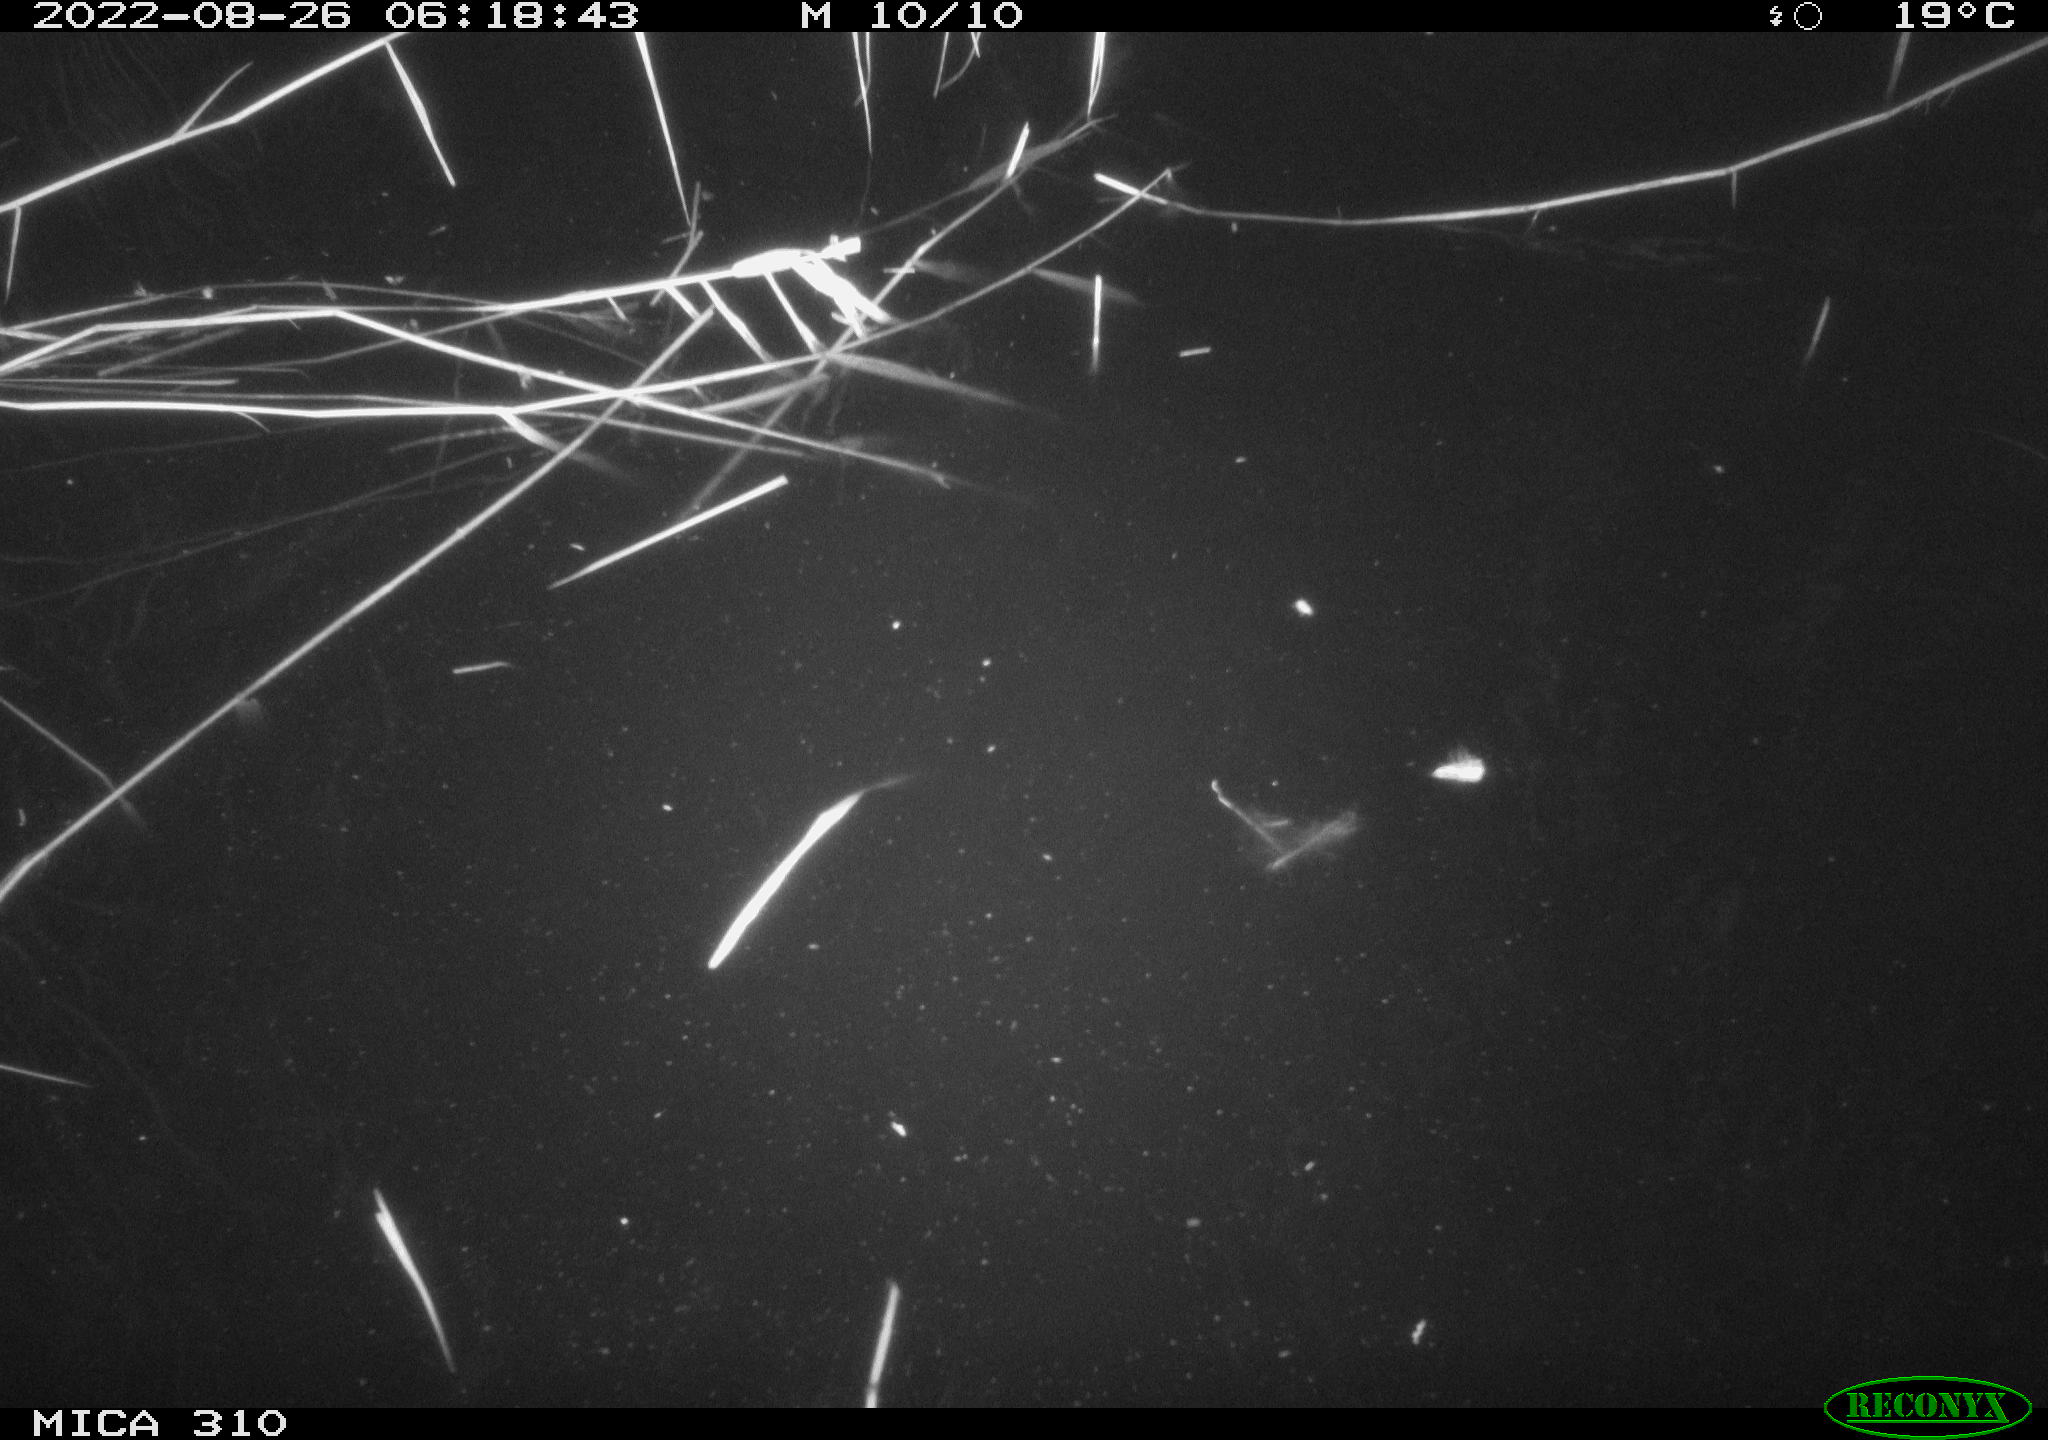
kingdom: Animalia
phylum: Chordata
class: Aves
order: Anseriformes
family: Anatidae
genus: Anas
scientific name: Anas platyrhynchos
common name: Mallard
